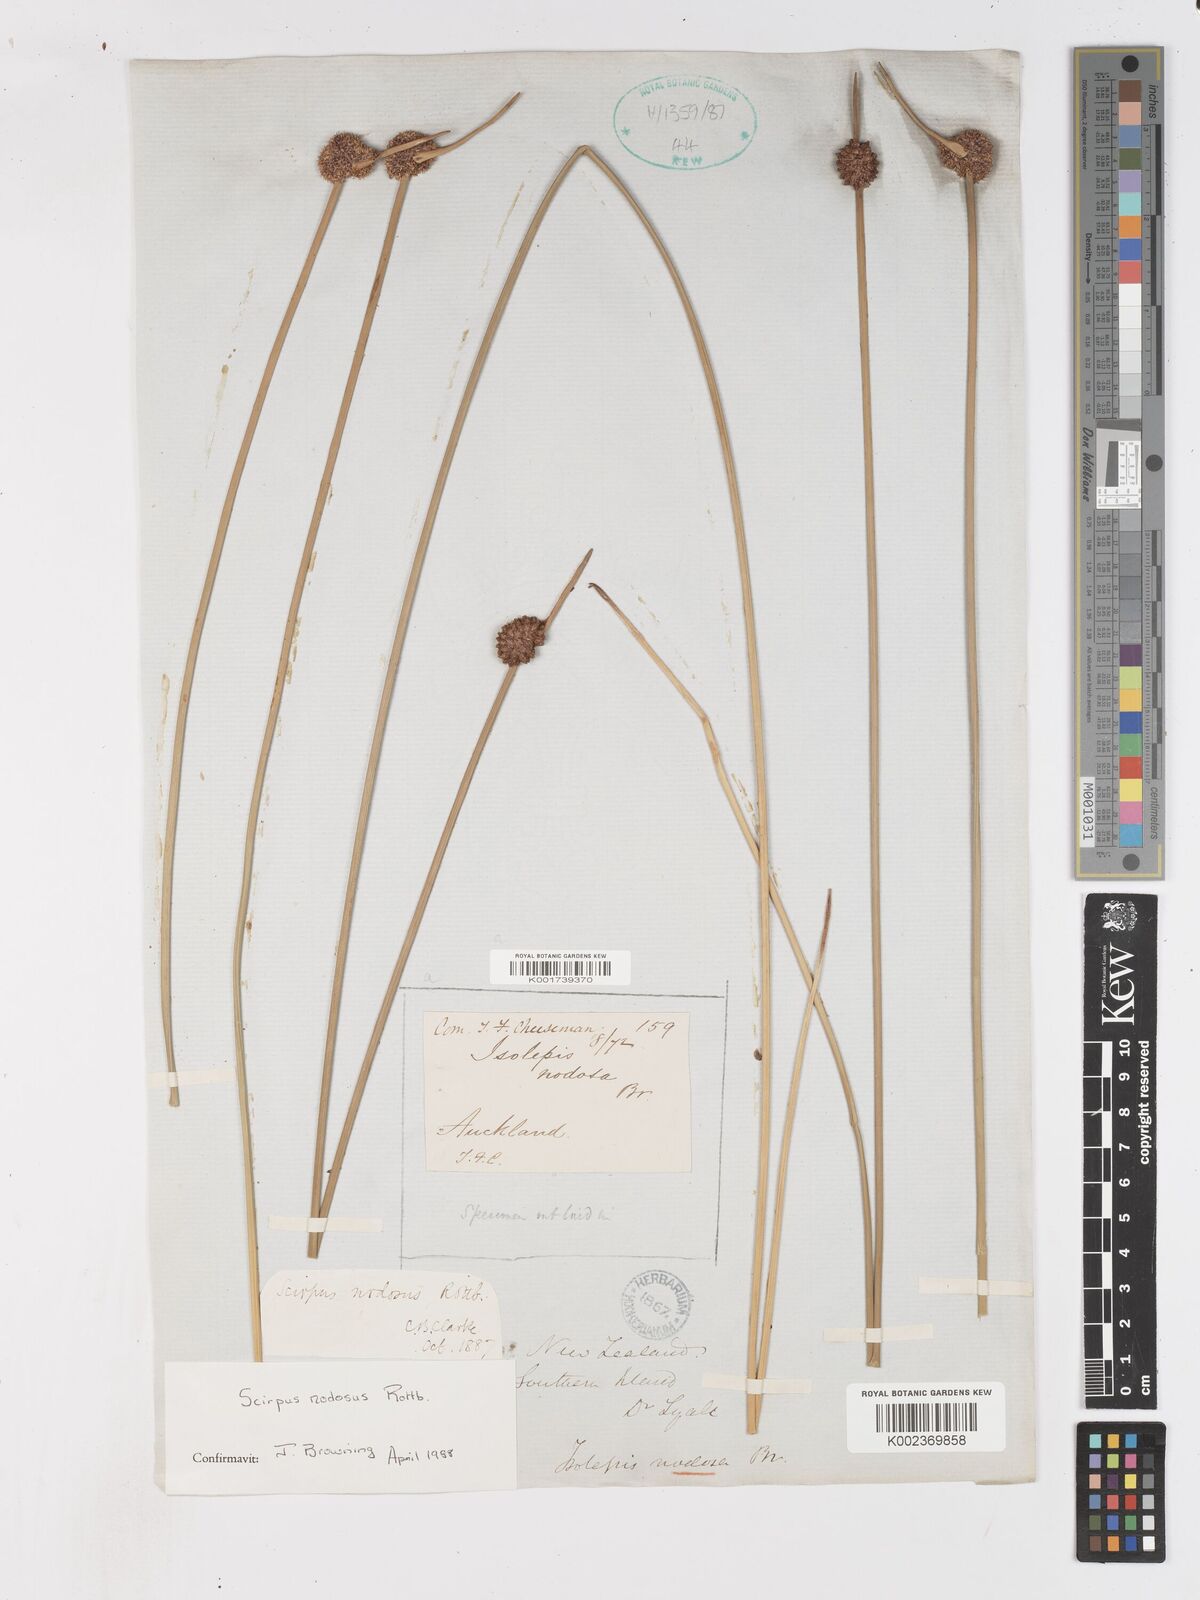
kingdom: Plantae
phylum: Tracheophyta
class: Liliopsida
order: Poales
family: Cyperaceae
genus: Ficinia
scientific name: Ficinia nodosa
